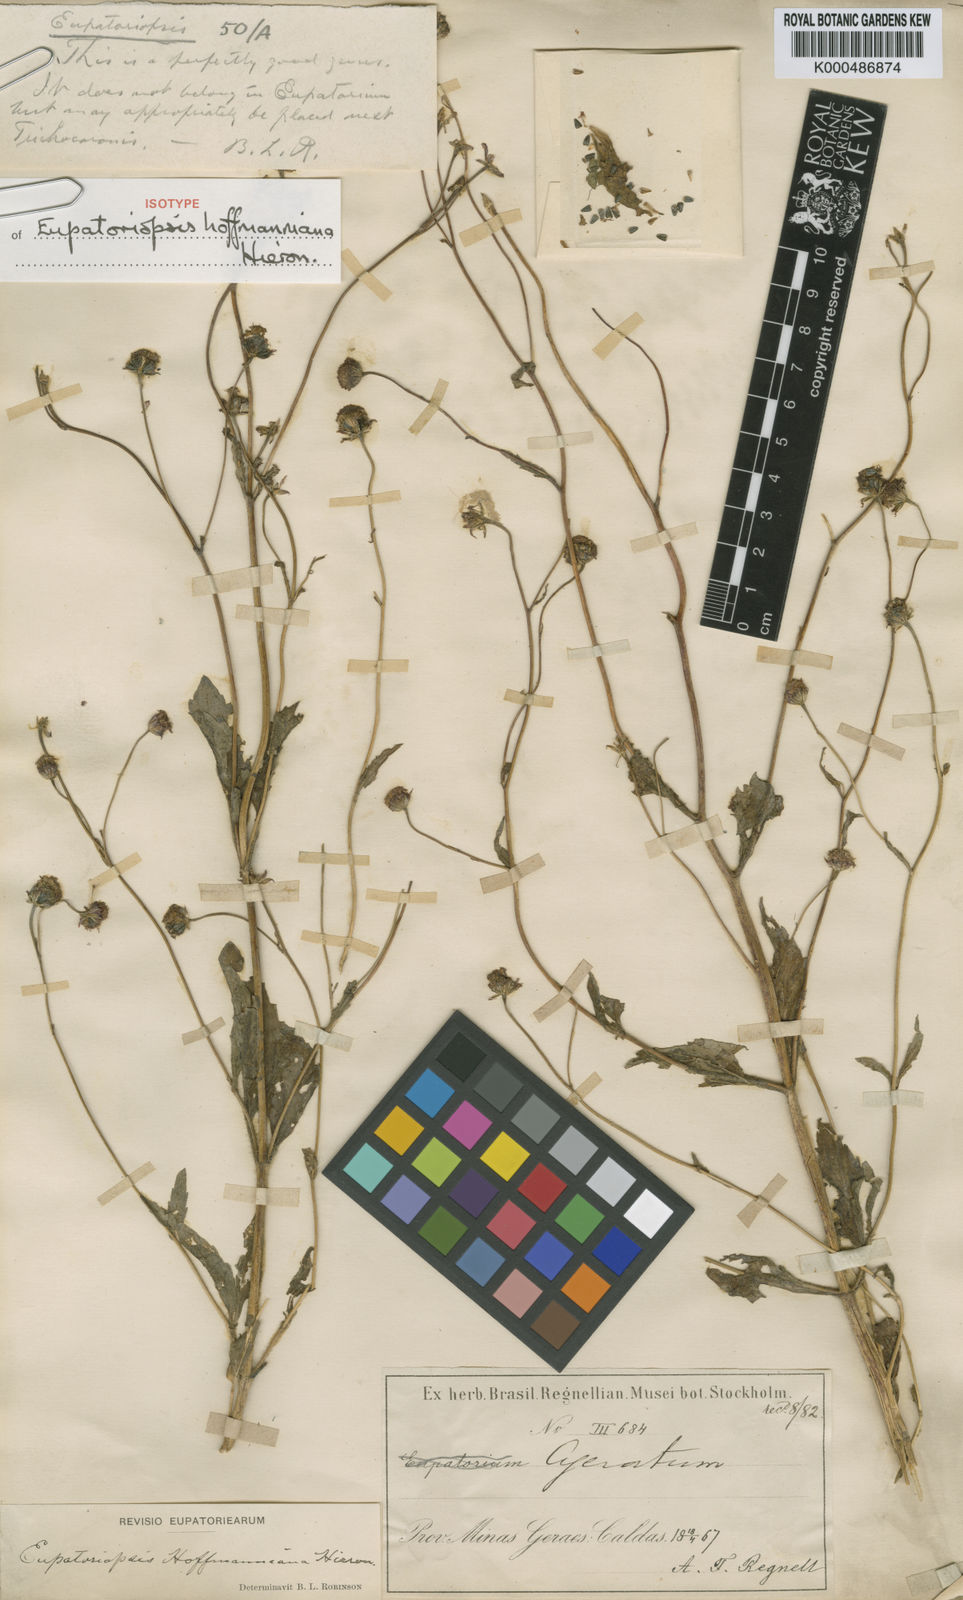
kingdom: Plantae
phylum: Tracheophyta
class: Magnoliopsida
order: Asterales
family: Asteraceae
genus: Eupatoriopsis
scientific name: Eupatoriopsis hoffmanniana
